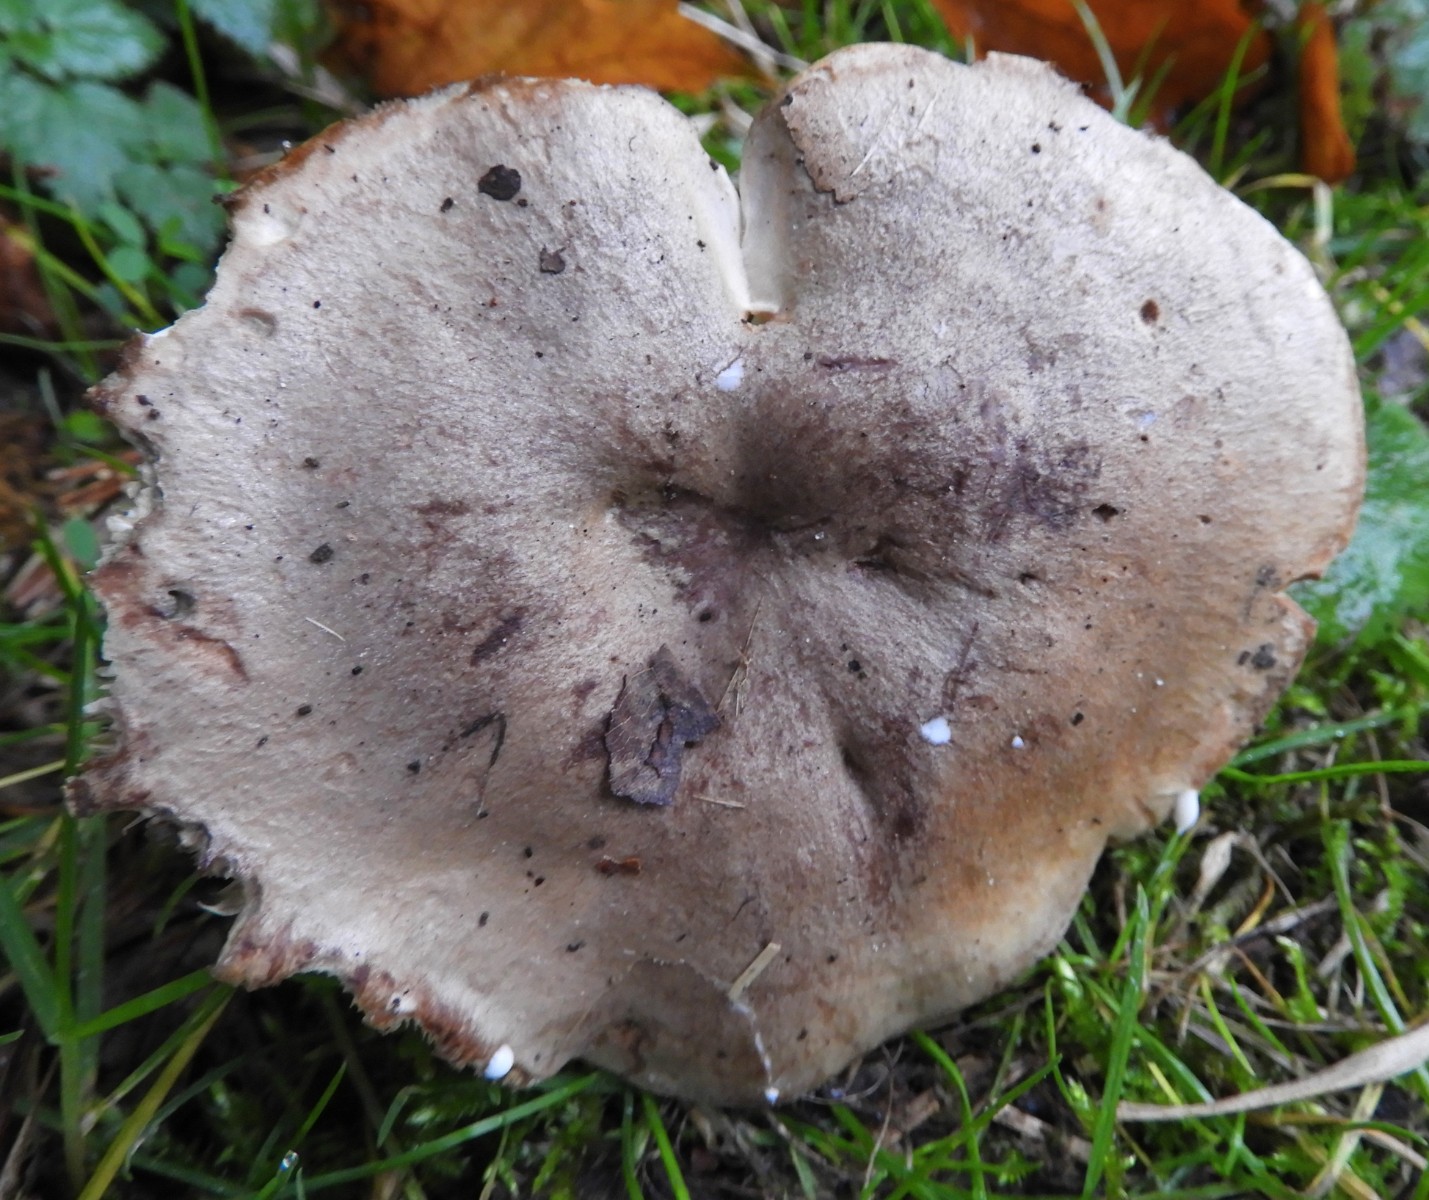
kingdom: Fungi
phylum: Basidiomycota
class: Agaricomycetes
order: Russulales
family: Russulaceae
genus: Lactarius
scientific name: Lactarius
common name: mælkehat
